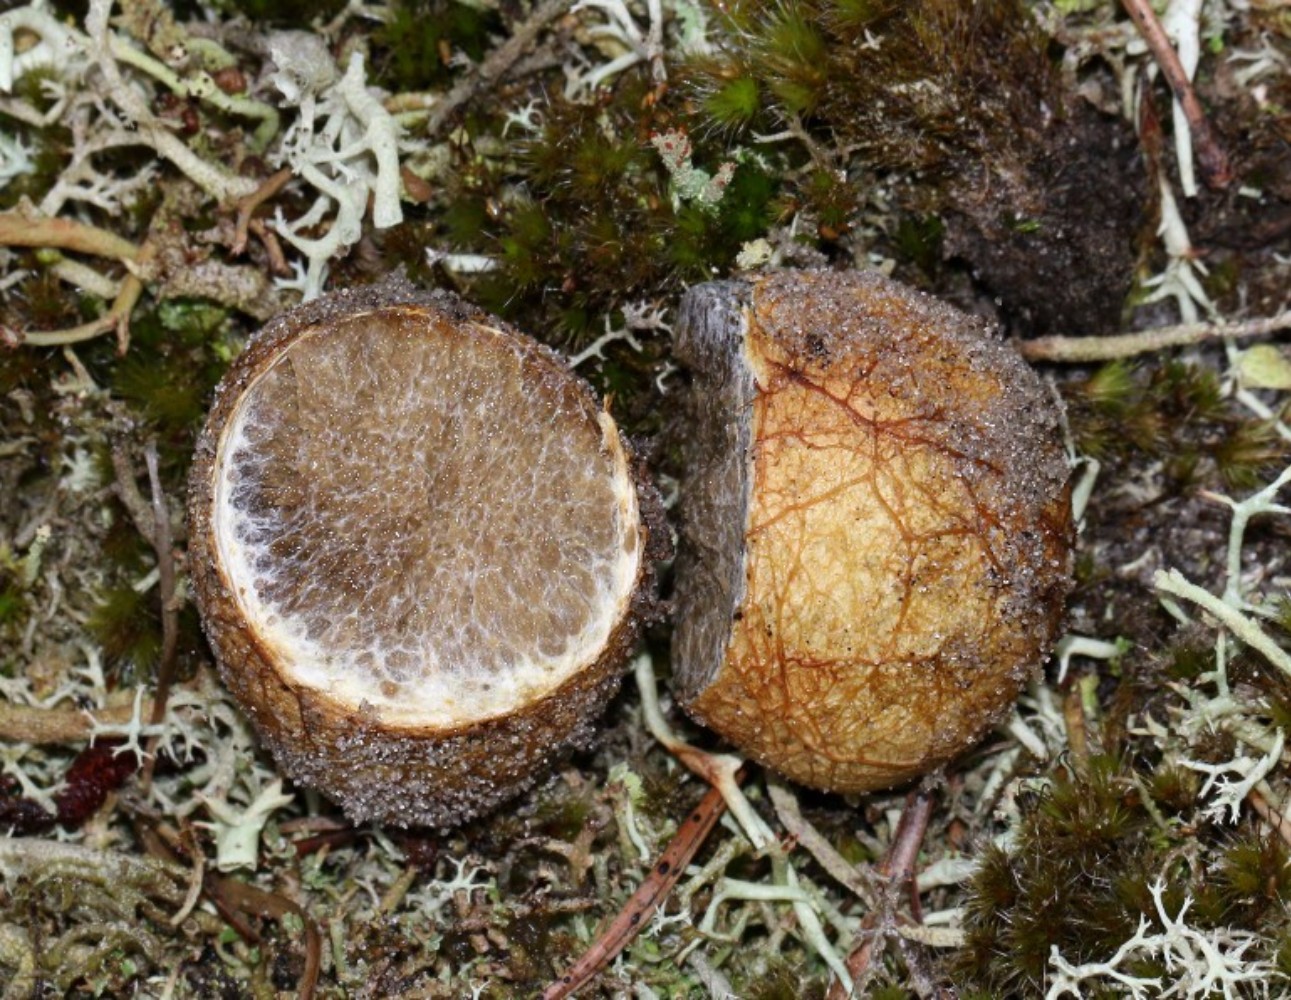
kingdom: Fungi
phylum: Basidiomycota
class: Agaricomycetes
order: Boletales
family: Rhizopogonaceae
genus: Rhizopogon
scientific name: Rhizopogon obtextus
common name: gul skægtrøffel
